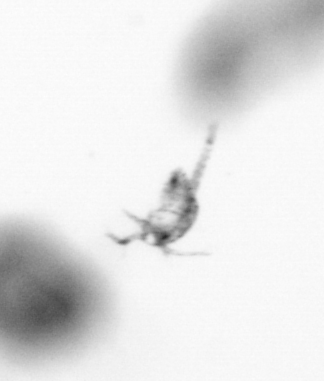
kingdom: Animalia
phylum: Arthropoda
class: Copepoda
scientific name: Copepoda
